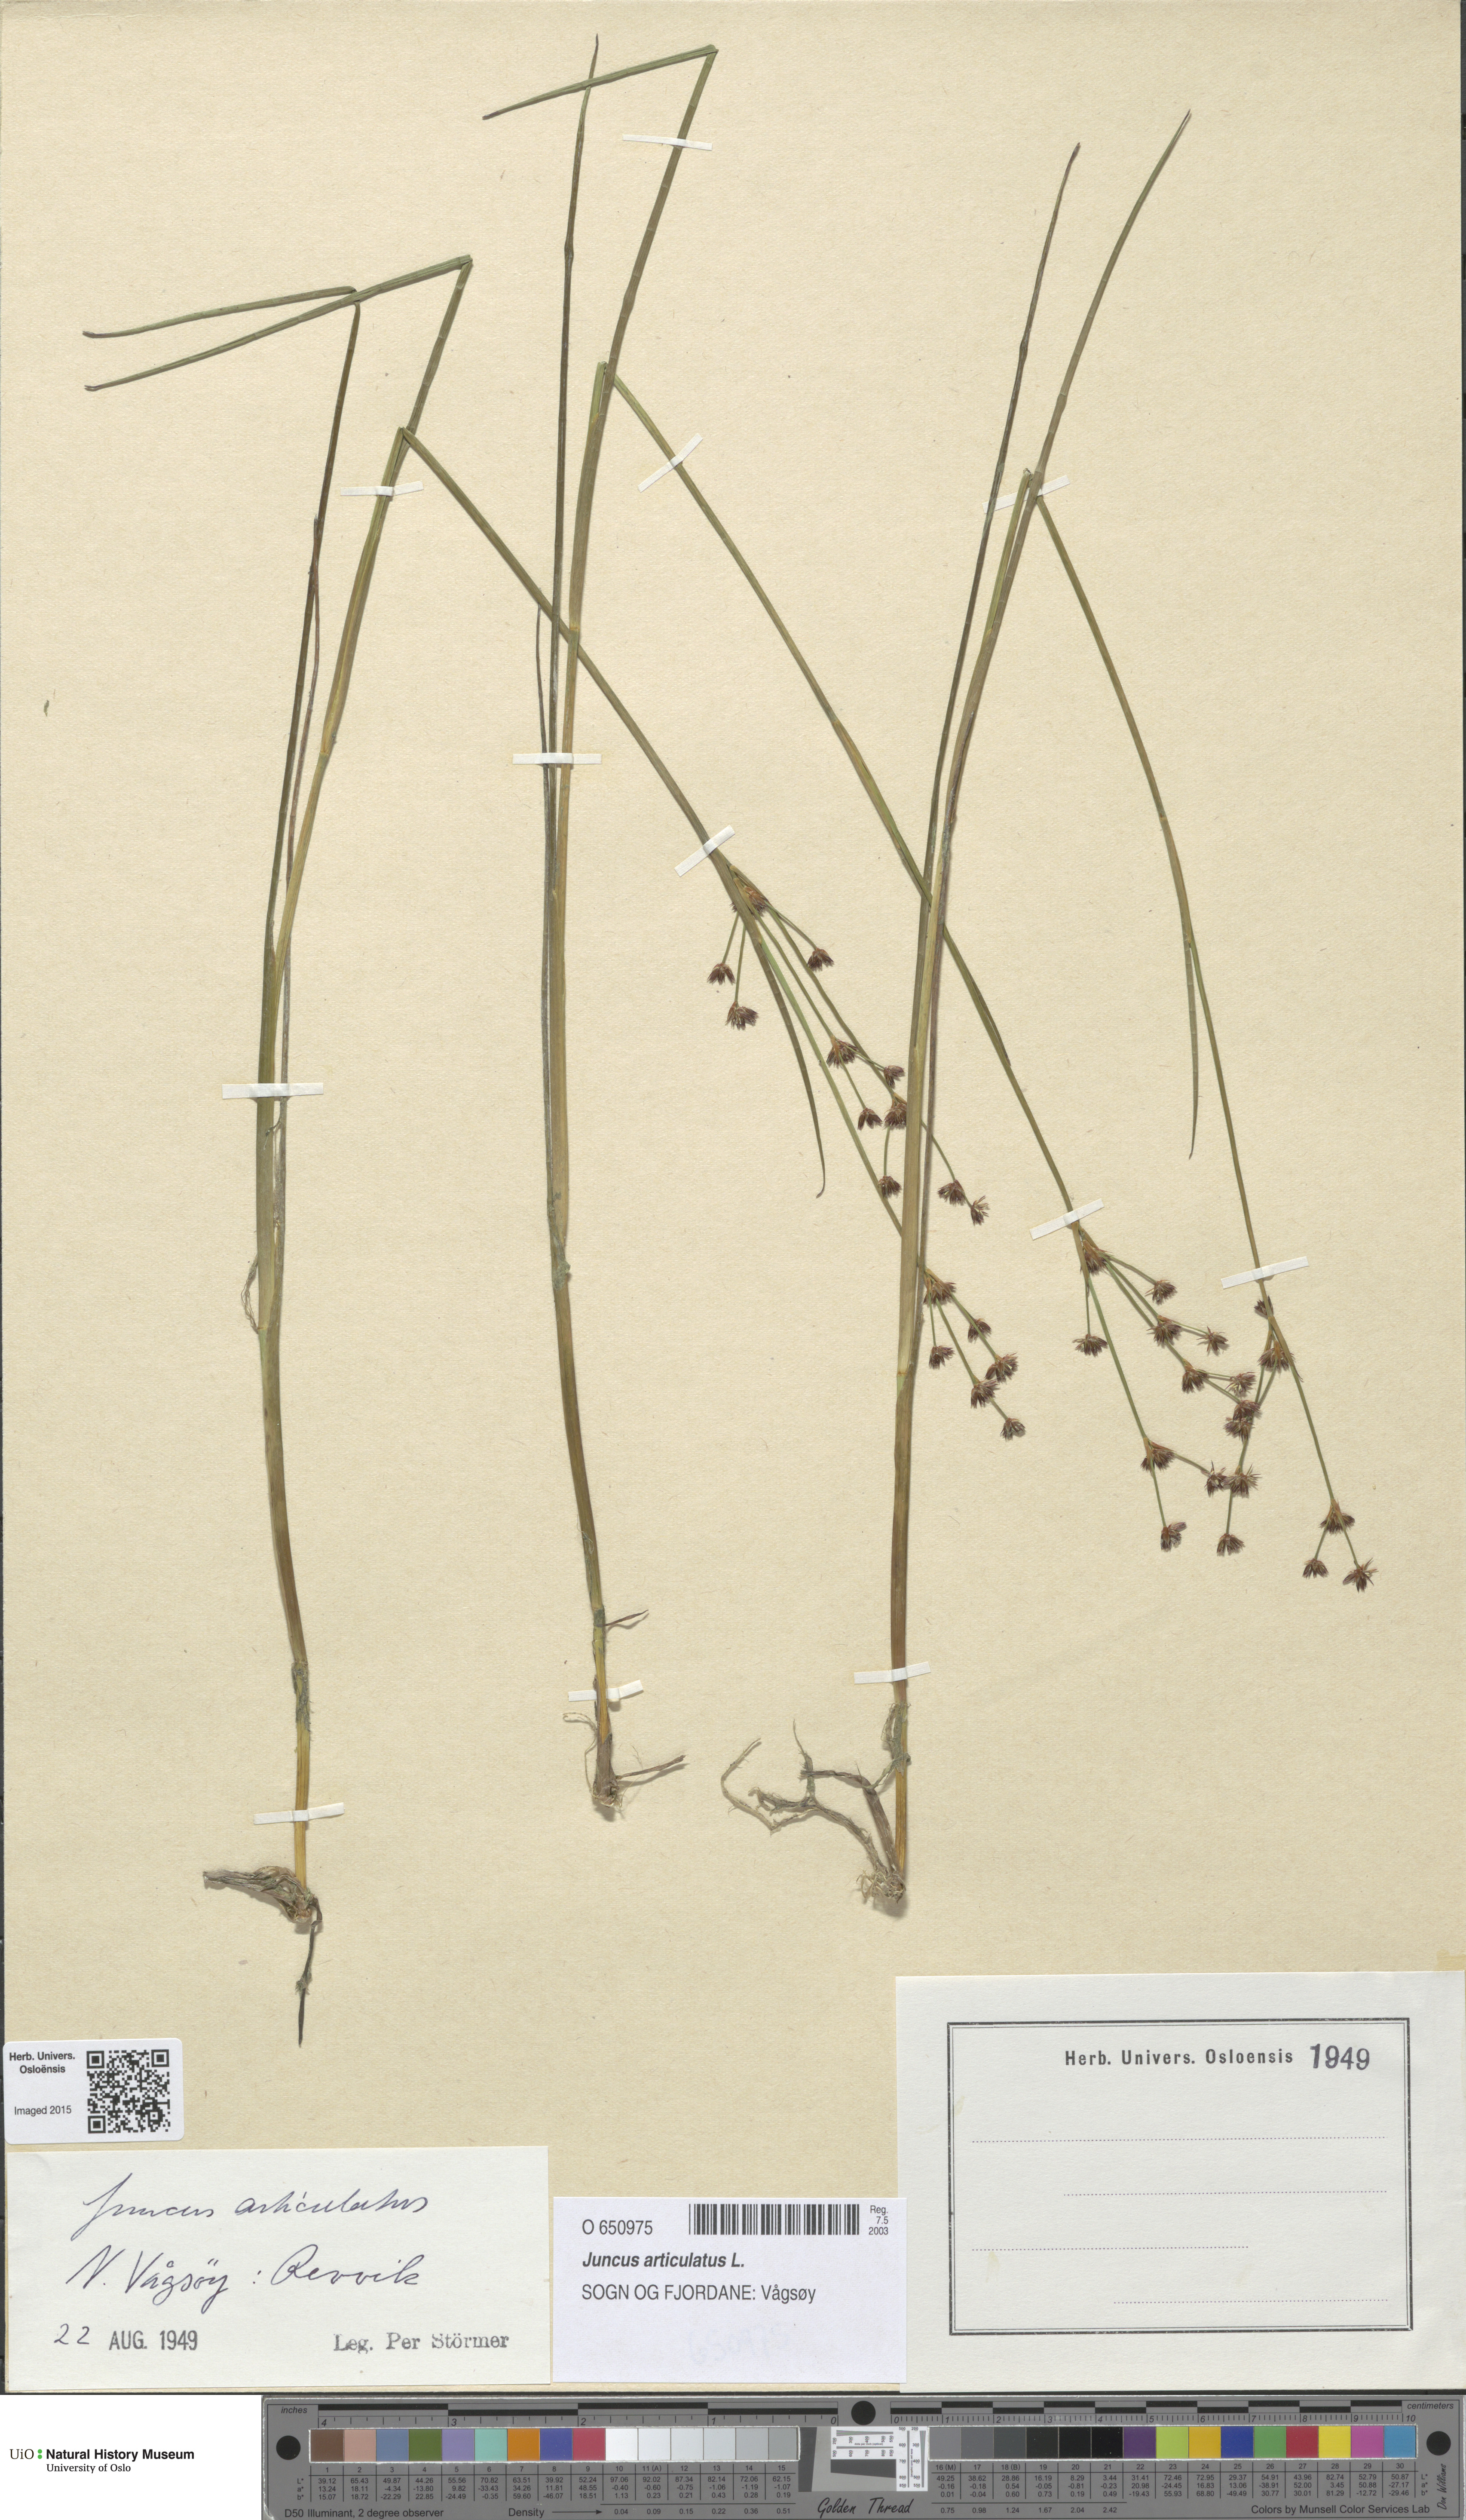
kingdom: Plantae
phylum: Tracheophyta
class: Liliopsida
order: Poales
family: Juncaceae
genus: Juncus
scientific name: Juncus articulatus
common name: Jointed rush
